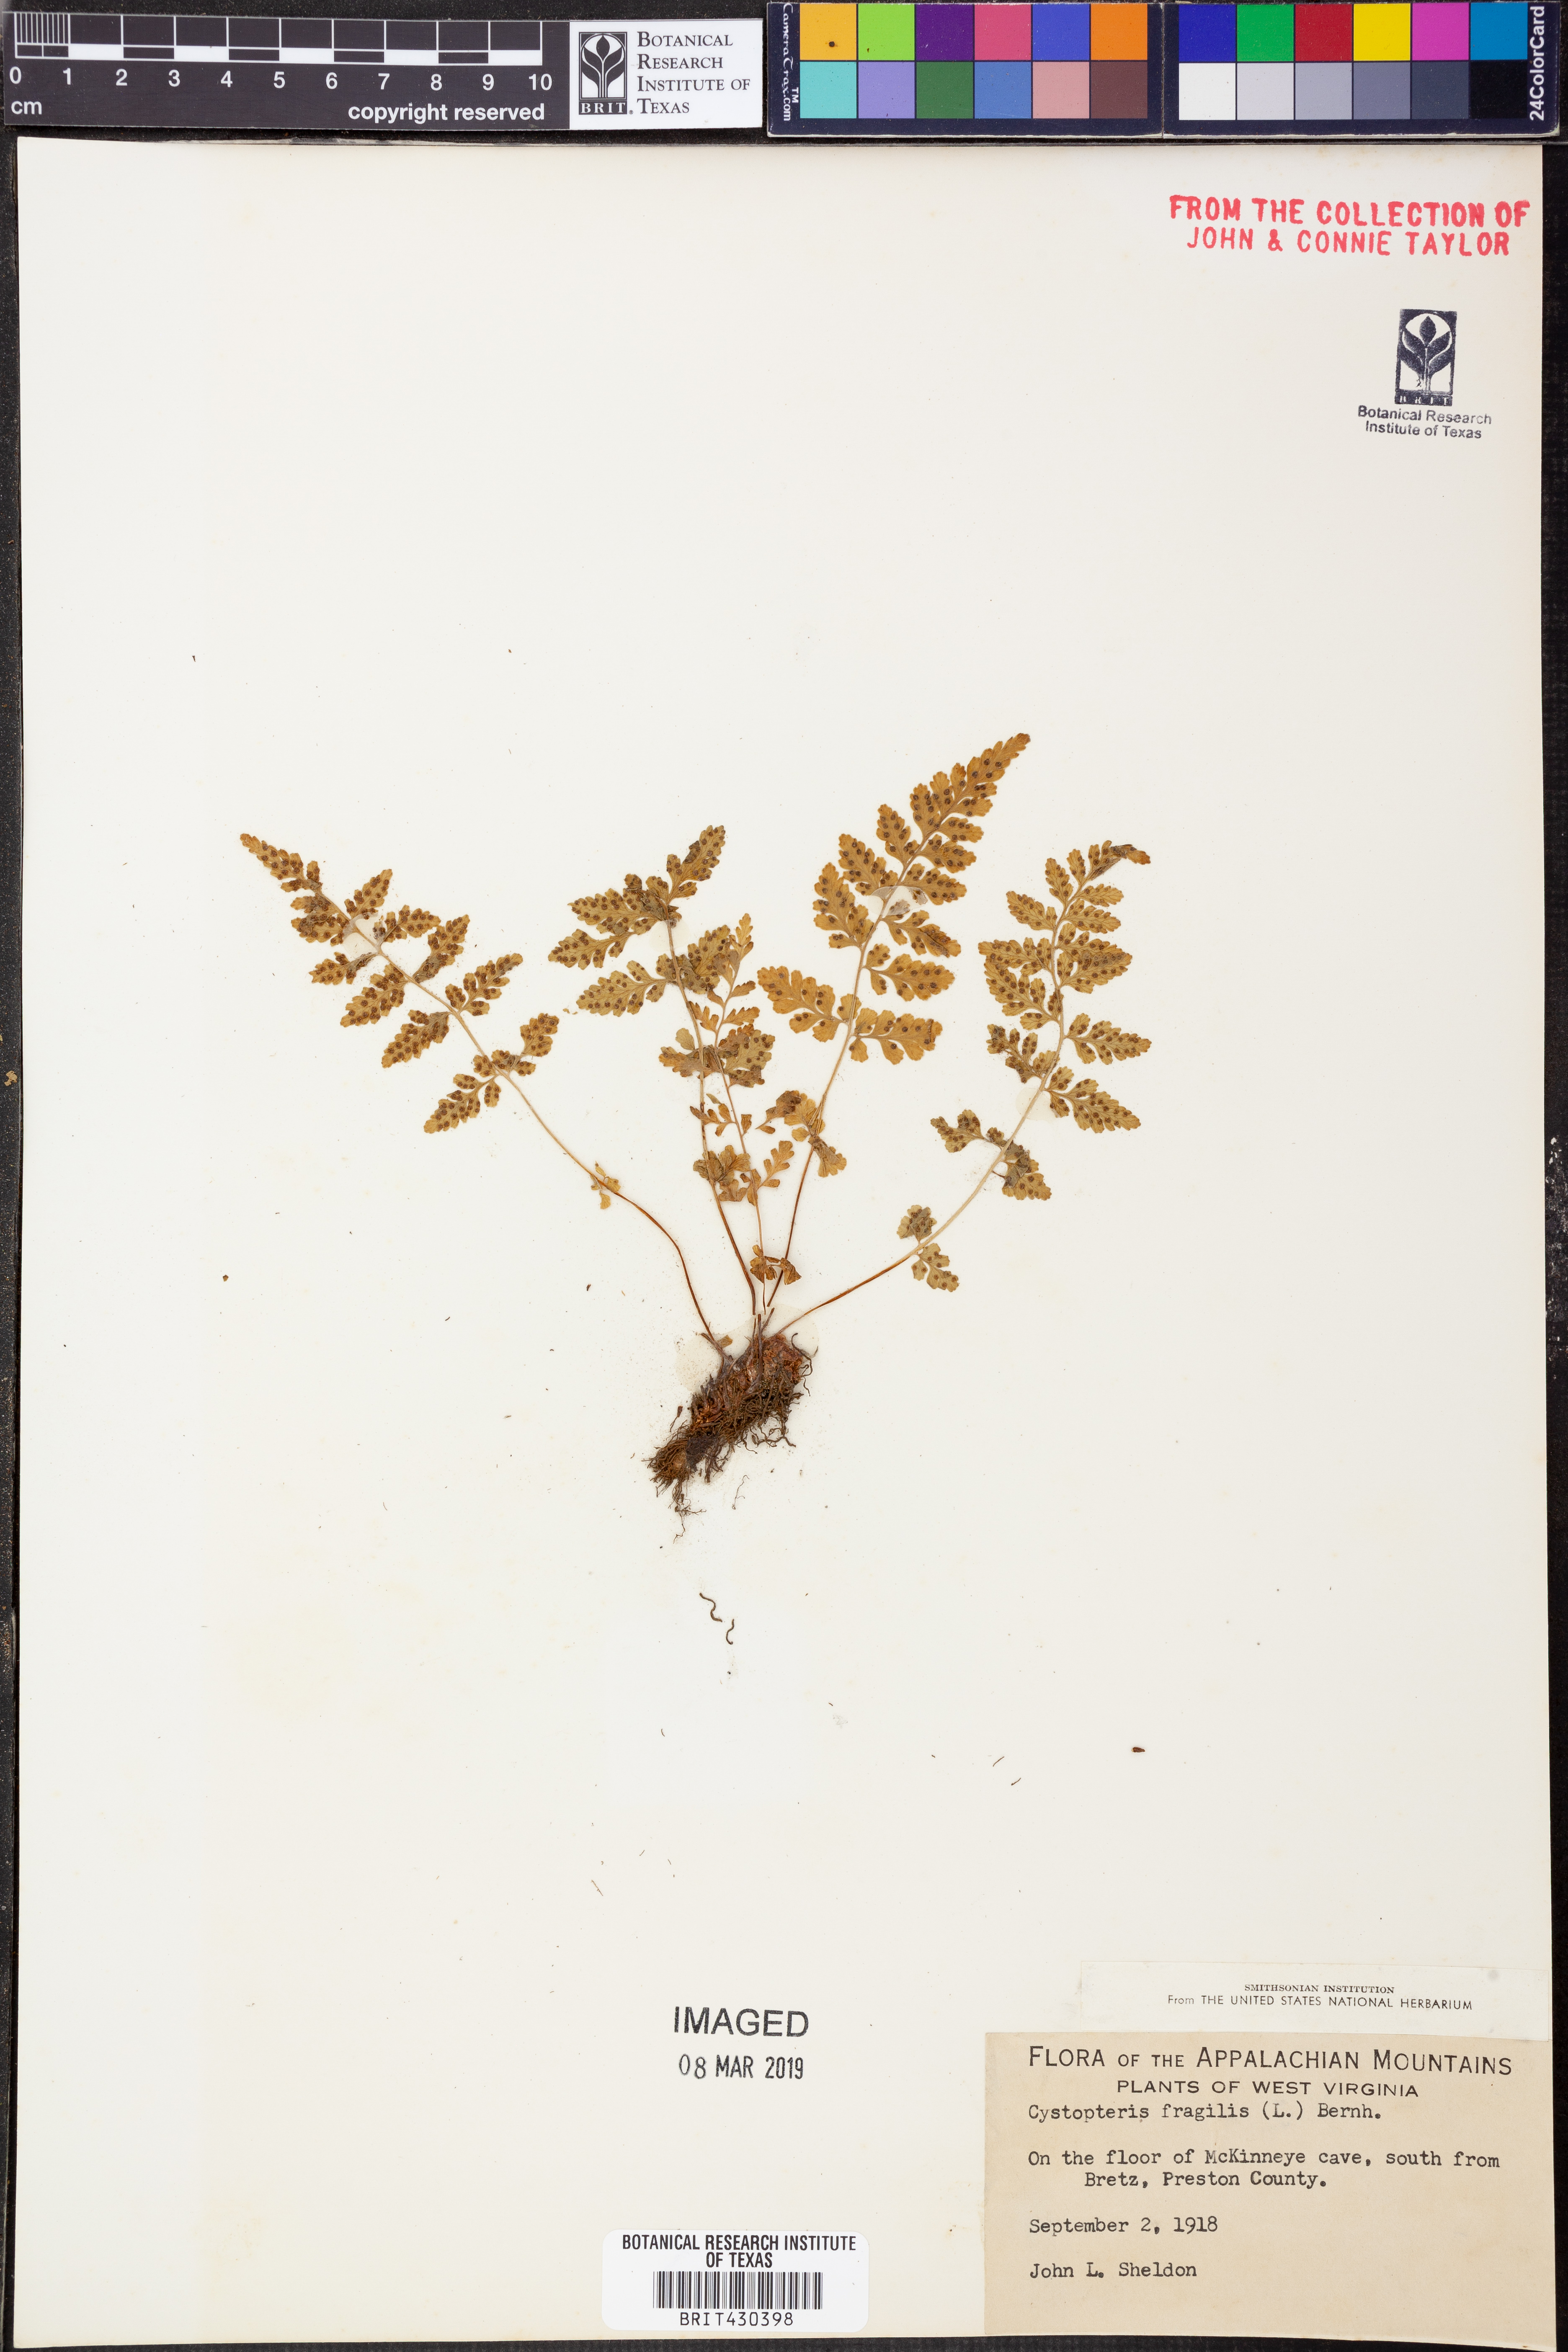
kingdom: Plantae
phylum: Tracheophyta
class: Polypodiopsida
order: Polypodiales
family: Cystopteridaceae
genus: Cystopteris
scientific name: Cystopteris fragilis
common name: Brittle bladder fern
